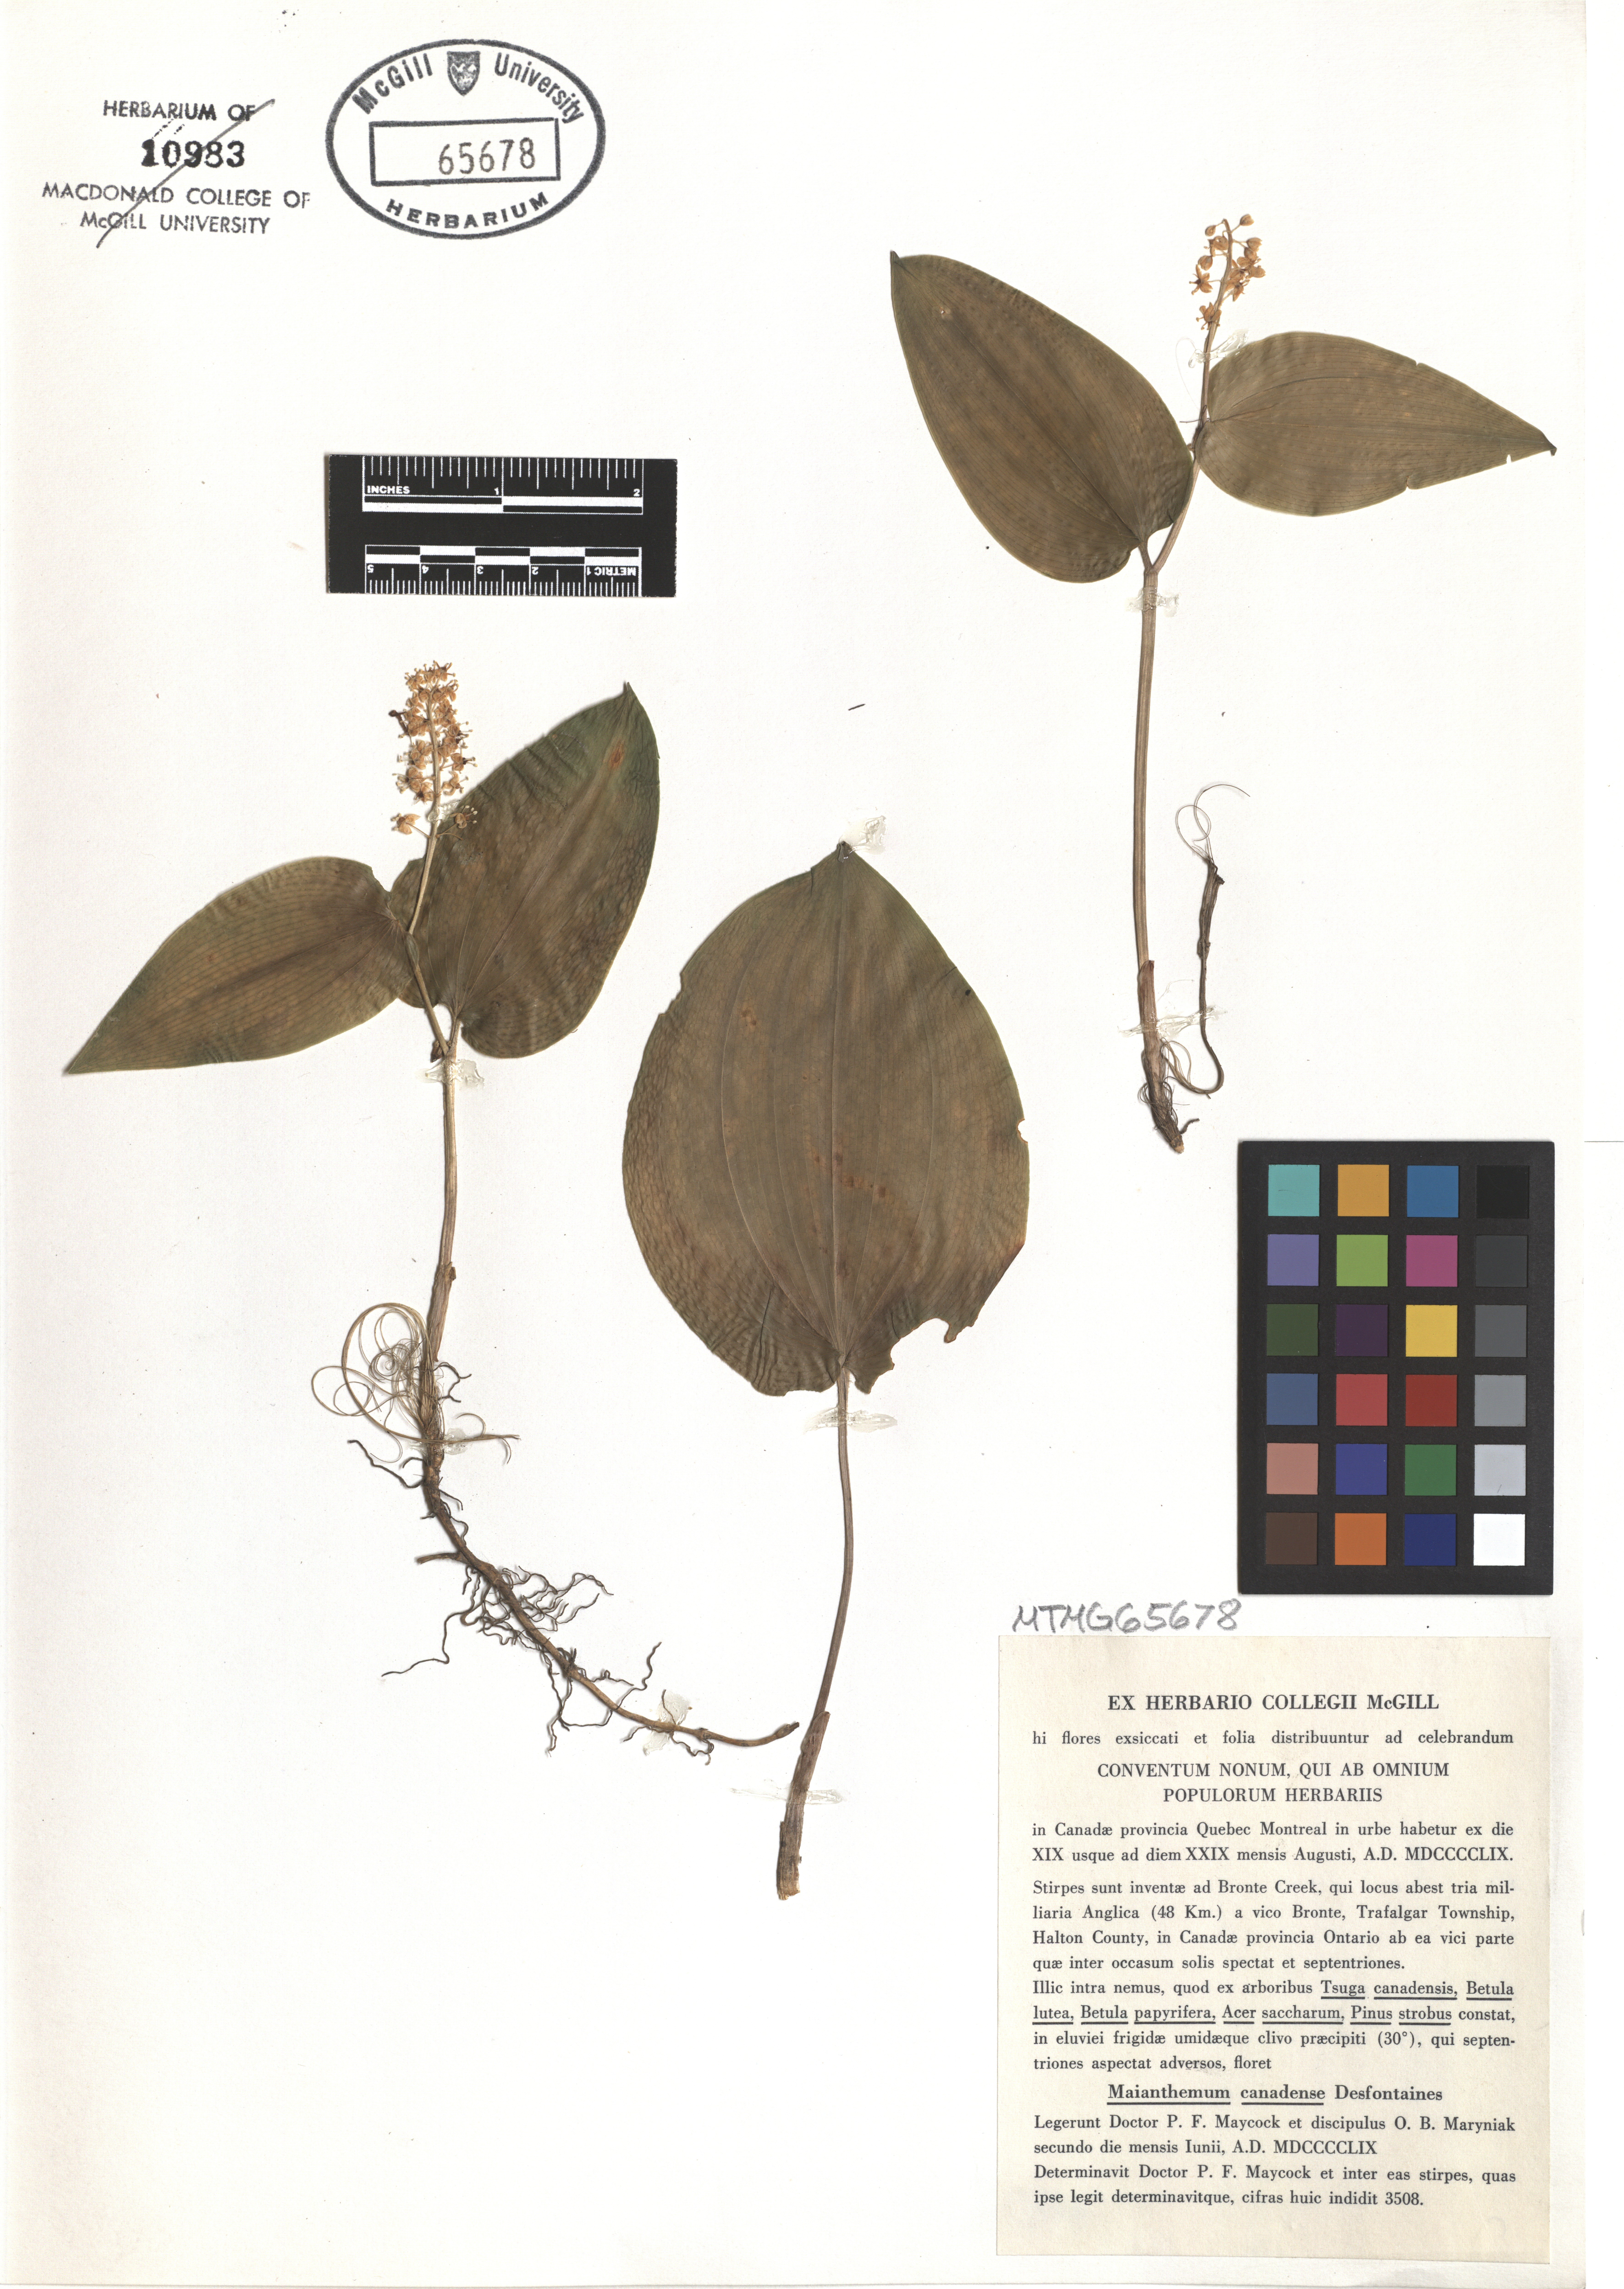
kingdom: Plantae
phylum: Tracheophyta
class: Liliopsida
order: Asparagales
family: Asparagaceae
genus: Maianthemum
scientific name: Maianthemum canadense
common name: False lily-of-the-valley
